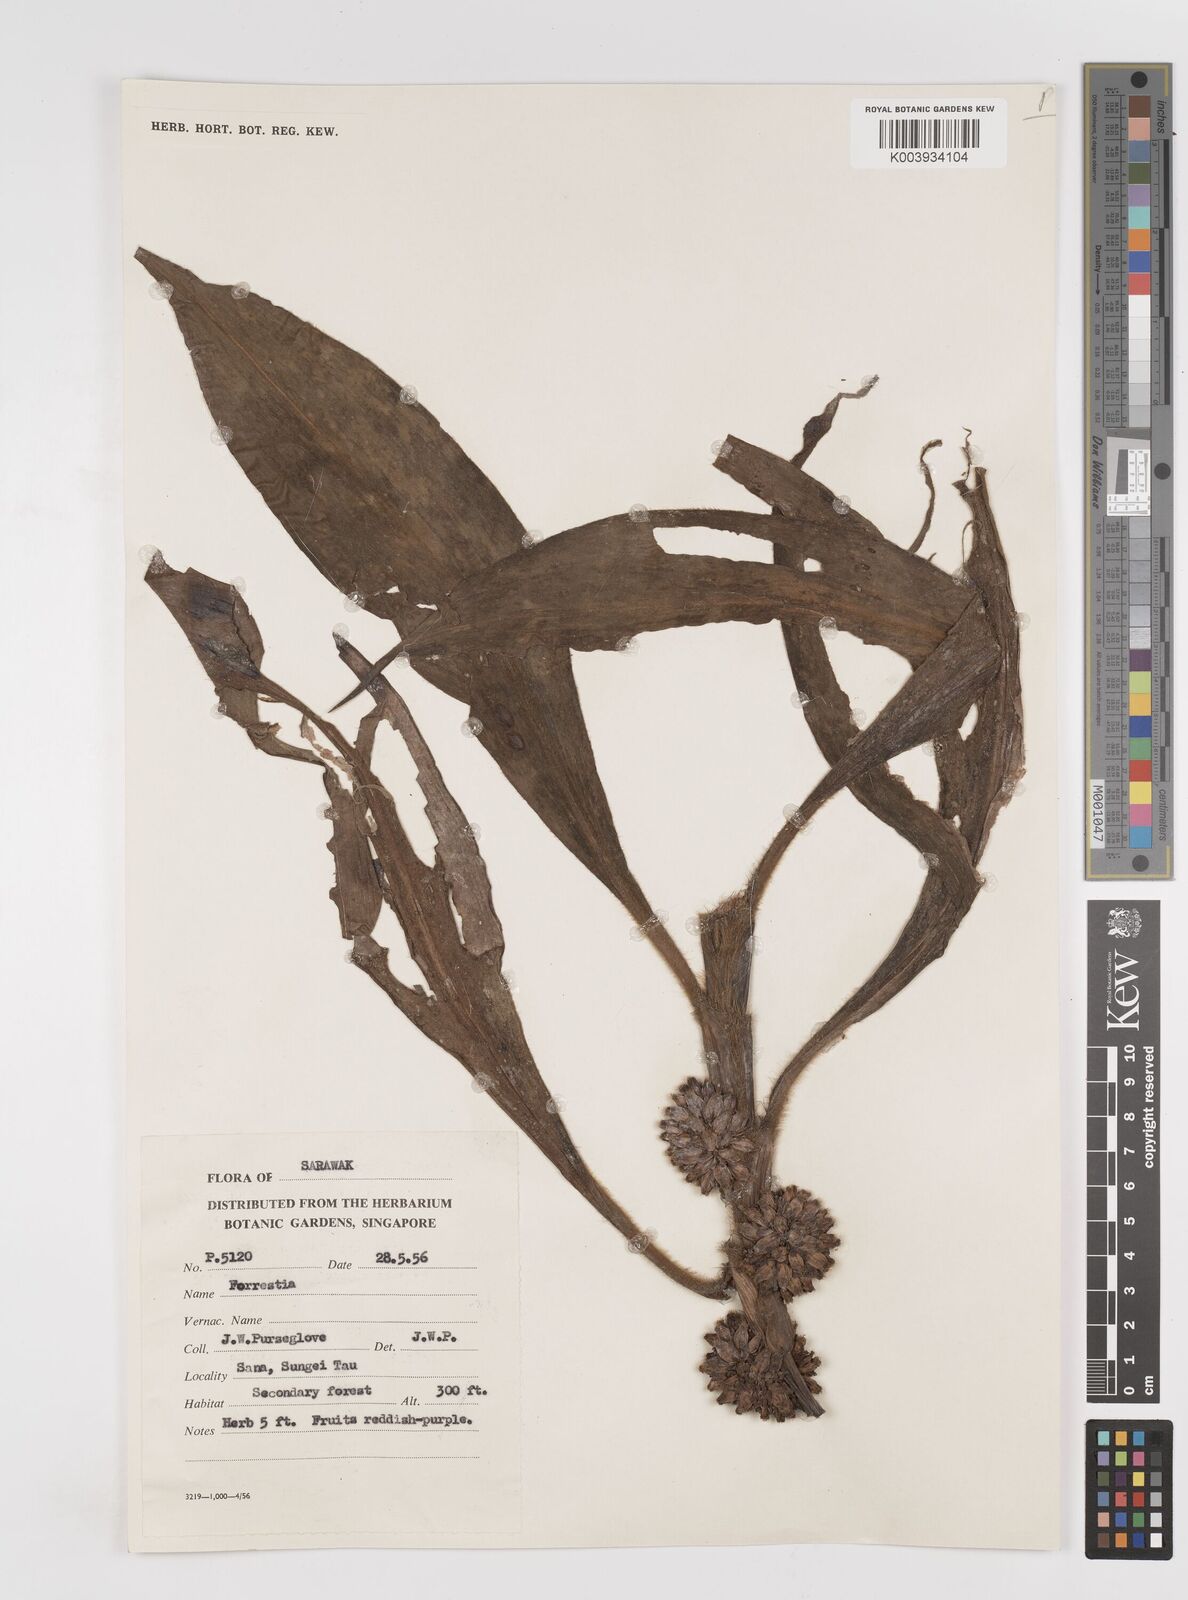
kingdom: Plantae
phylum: Tracheophyta
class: Liliopsida
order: Commelinales
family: Commelinaceae
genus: Amischotolype
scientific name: Amischotolype
